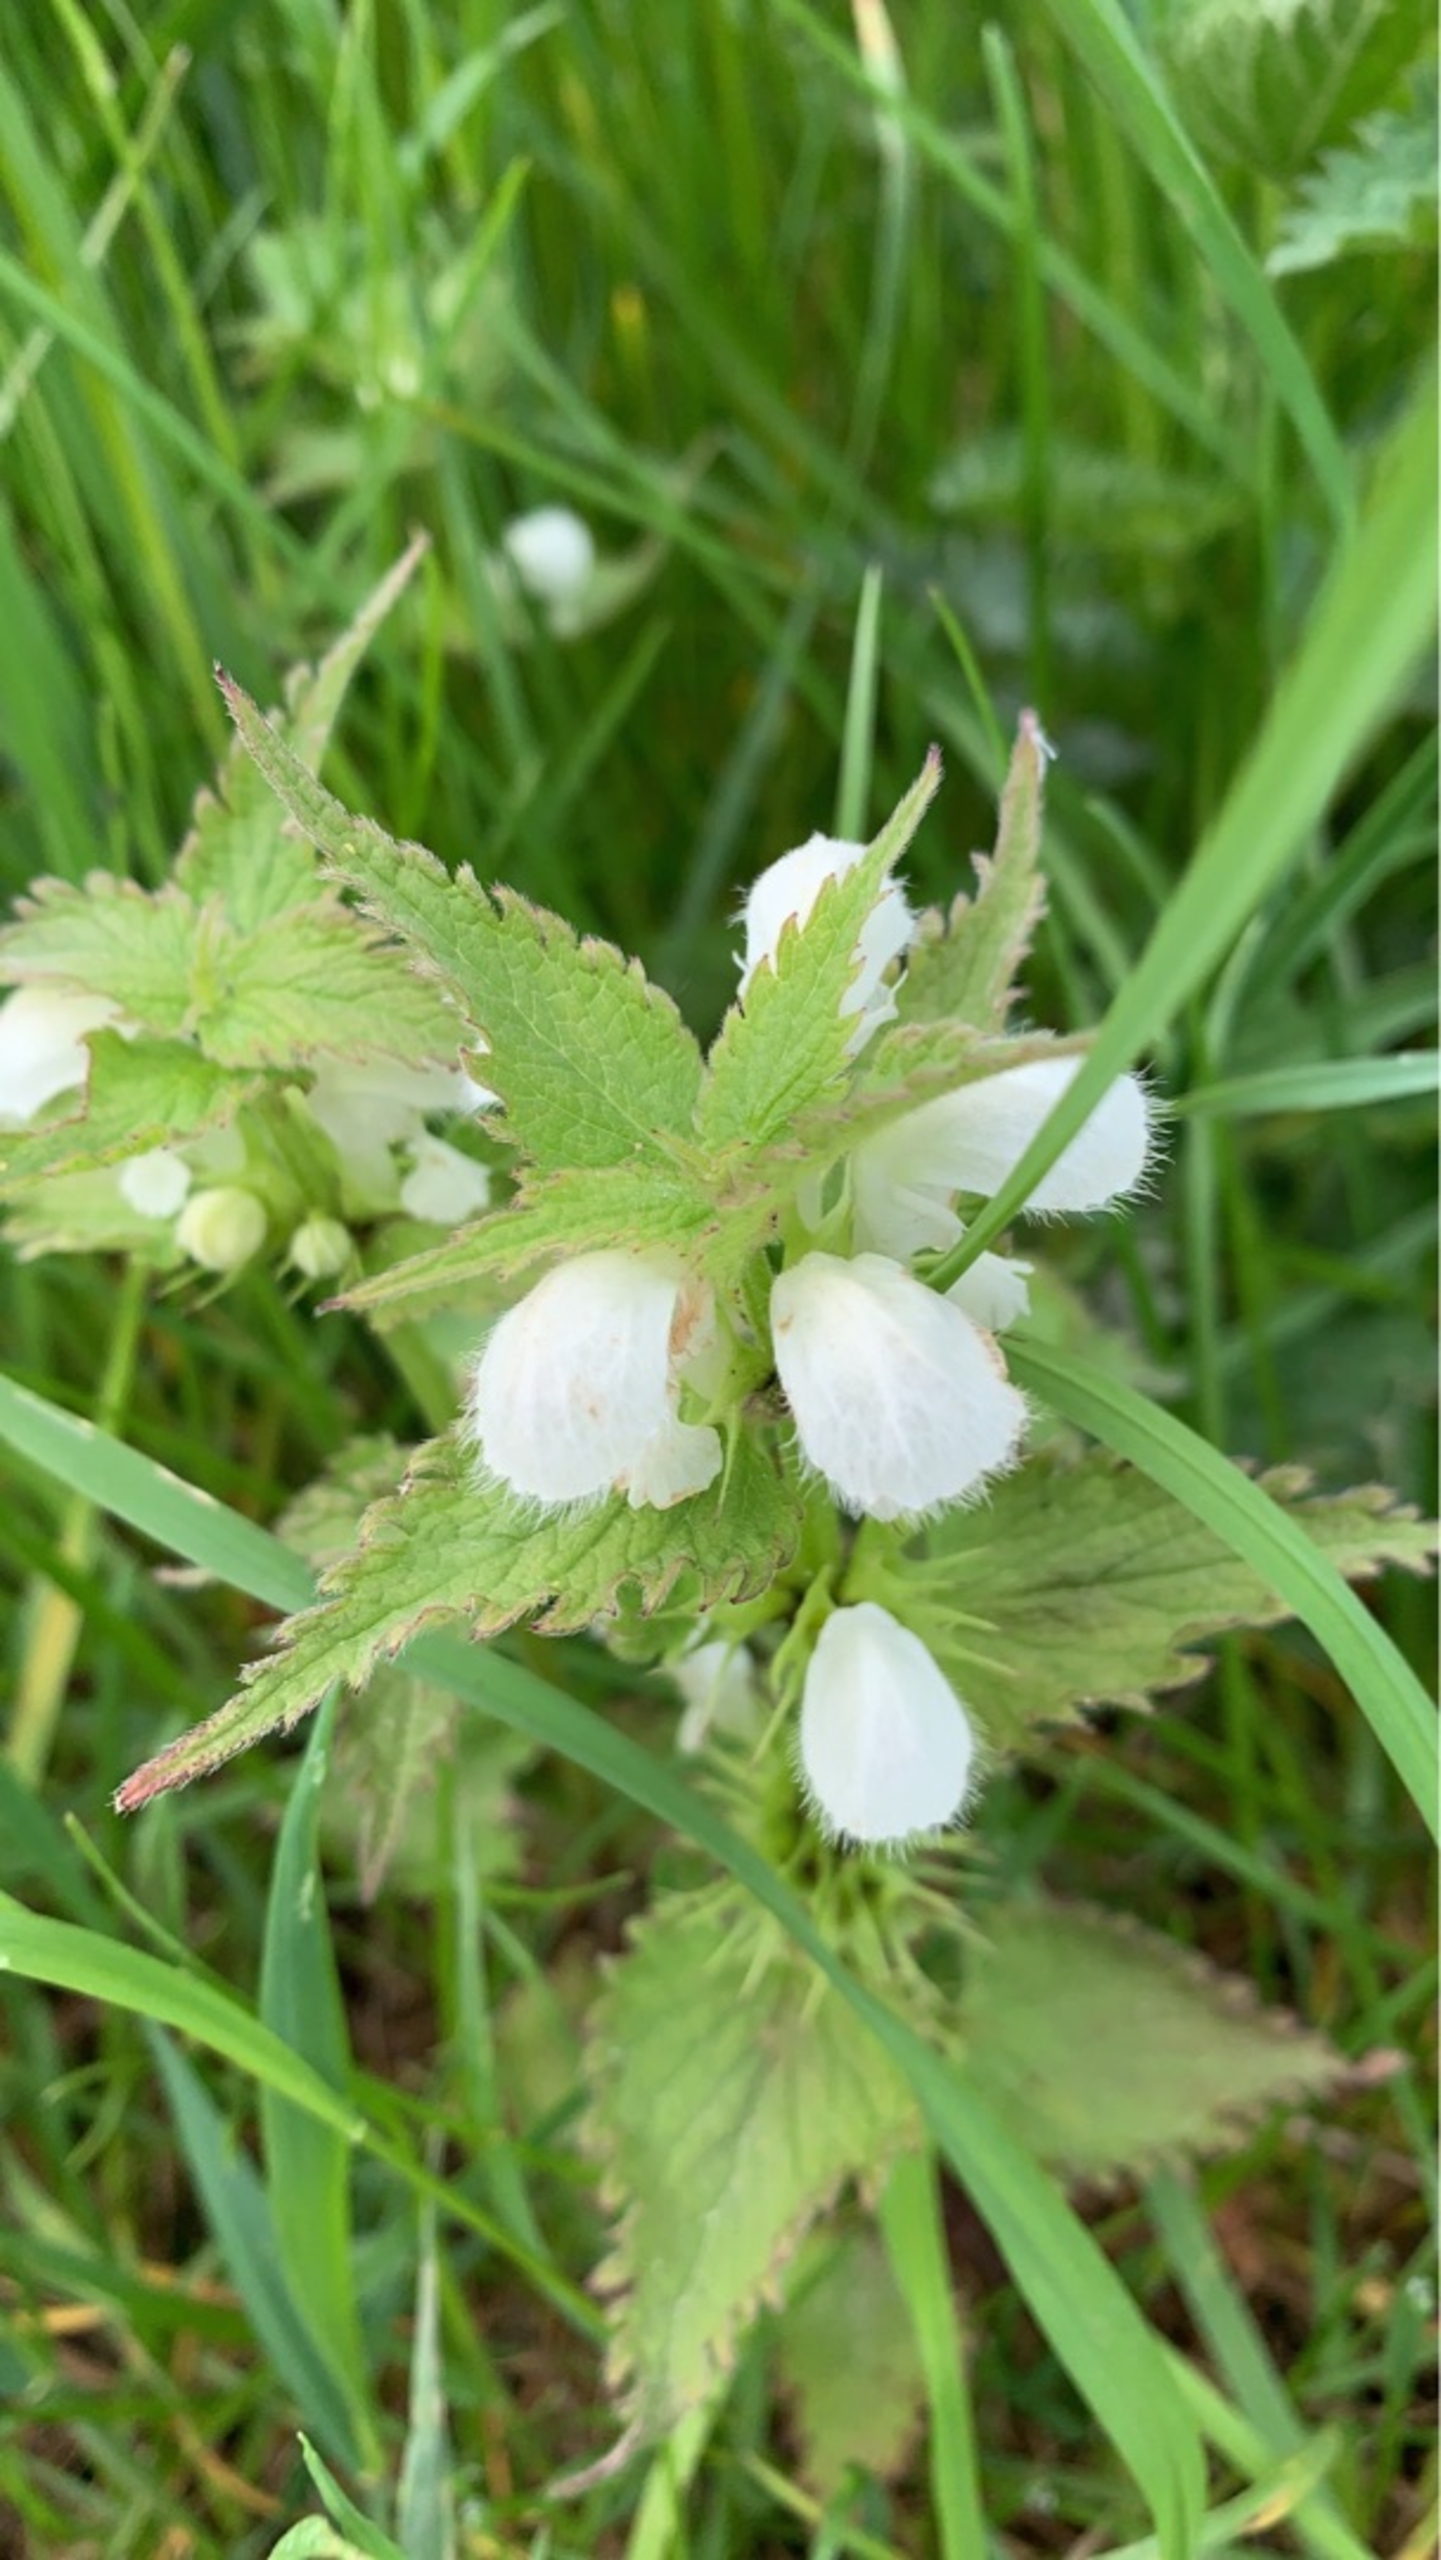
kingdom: Plantae
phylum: Tracheophyta
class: Magnoliopsida
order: Lamiales
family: Lamiaceae
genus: Lamium
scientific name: Lamium album
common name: Døvnælde
